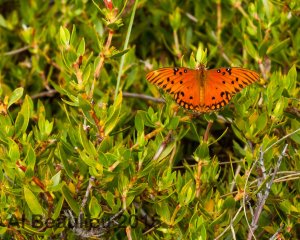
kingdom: Animalia
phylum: Arthropoda
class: Insecta
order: Lepidoptera
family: Nymphalidae
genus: Dione
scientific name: Dione vanillae
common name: Gulf Fritillary
